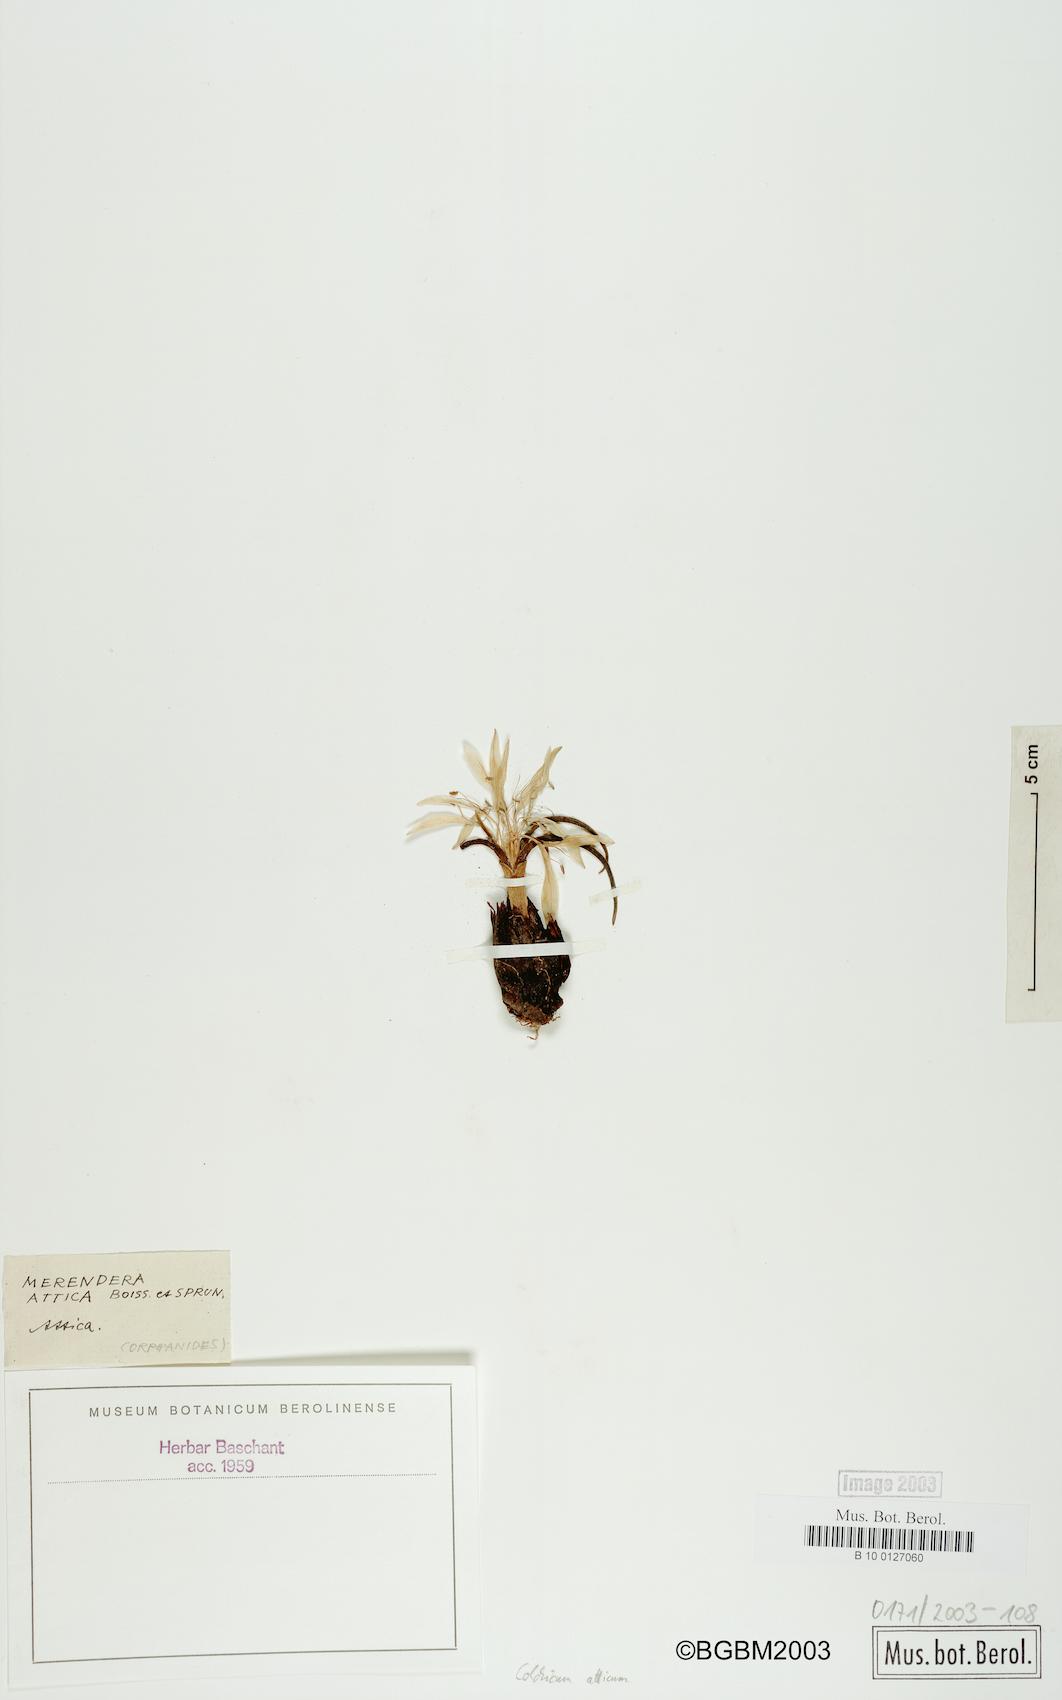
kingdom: Plantae
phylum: Tracheophyta
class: Liliopsida
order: Liliales
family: Colchicaceae
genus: Colchicum
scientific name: Colchicum atticum
